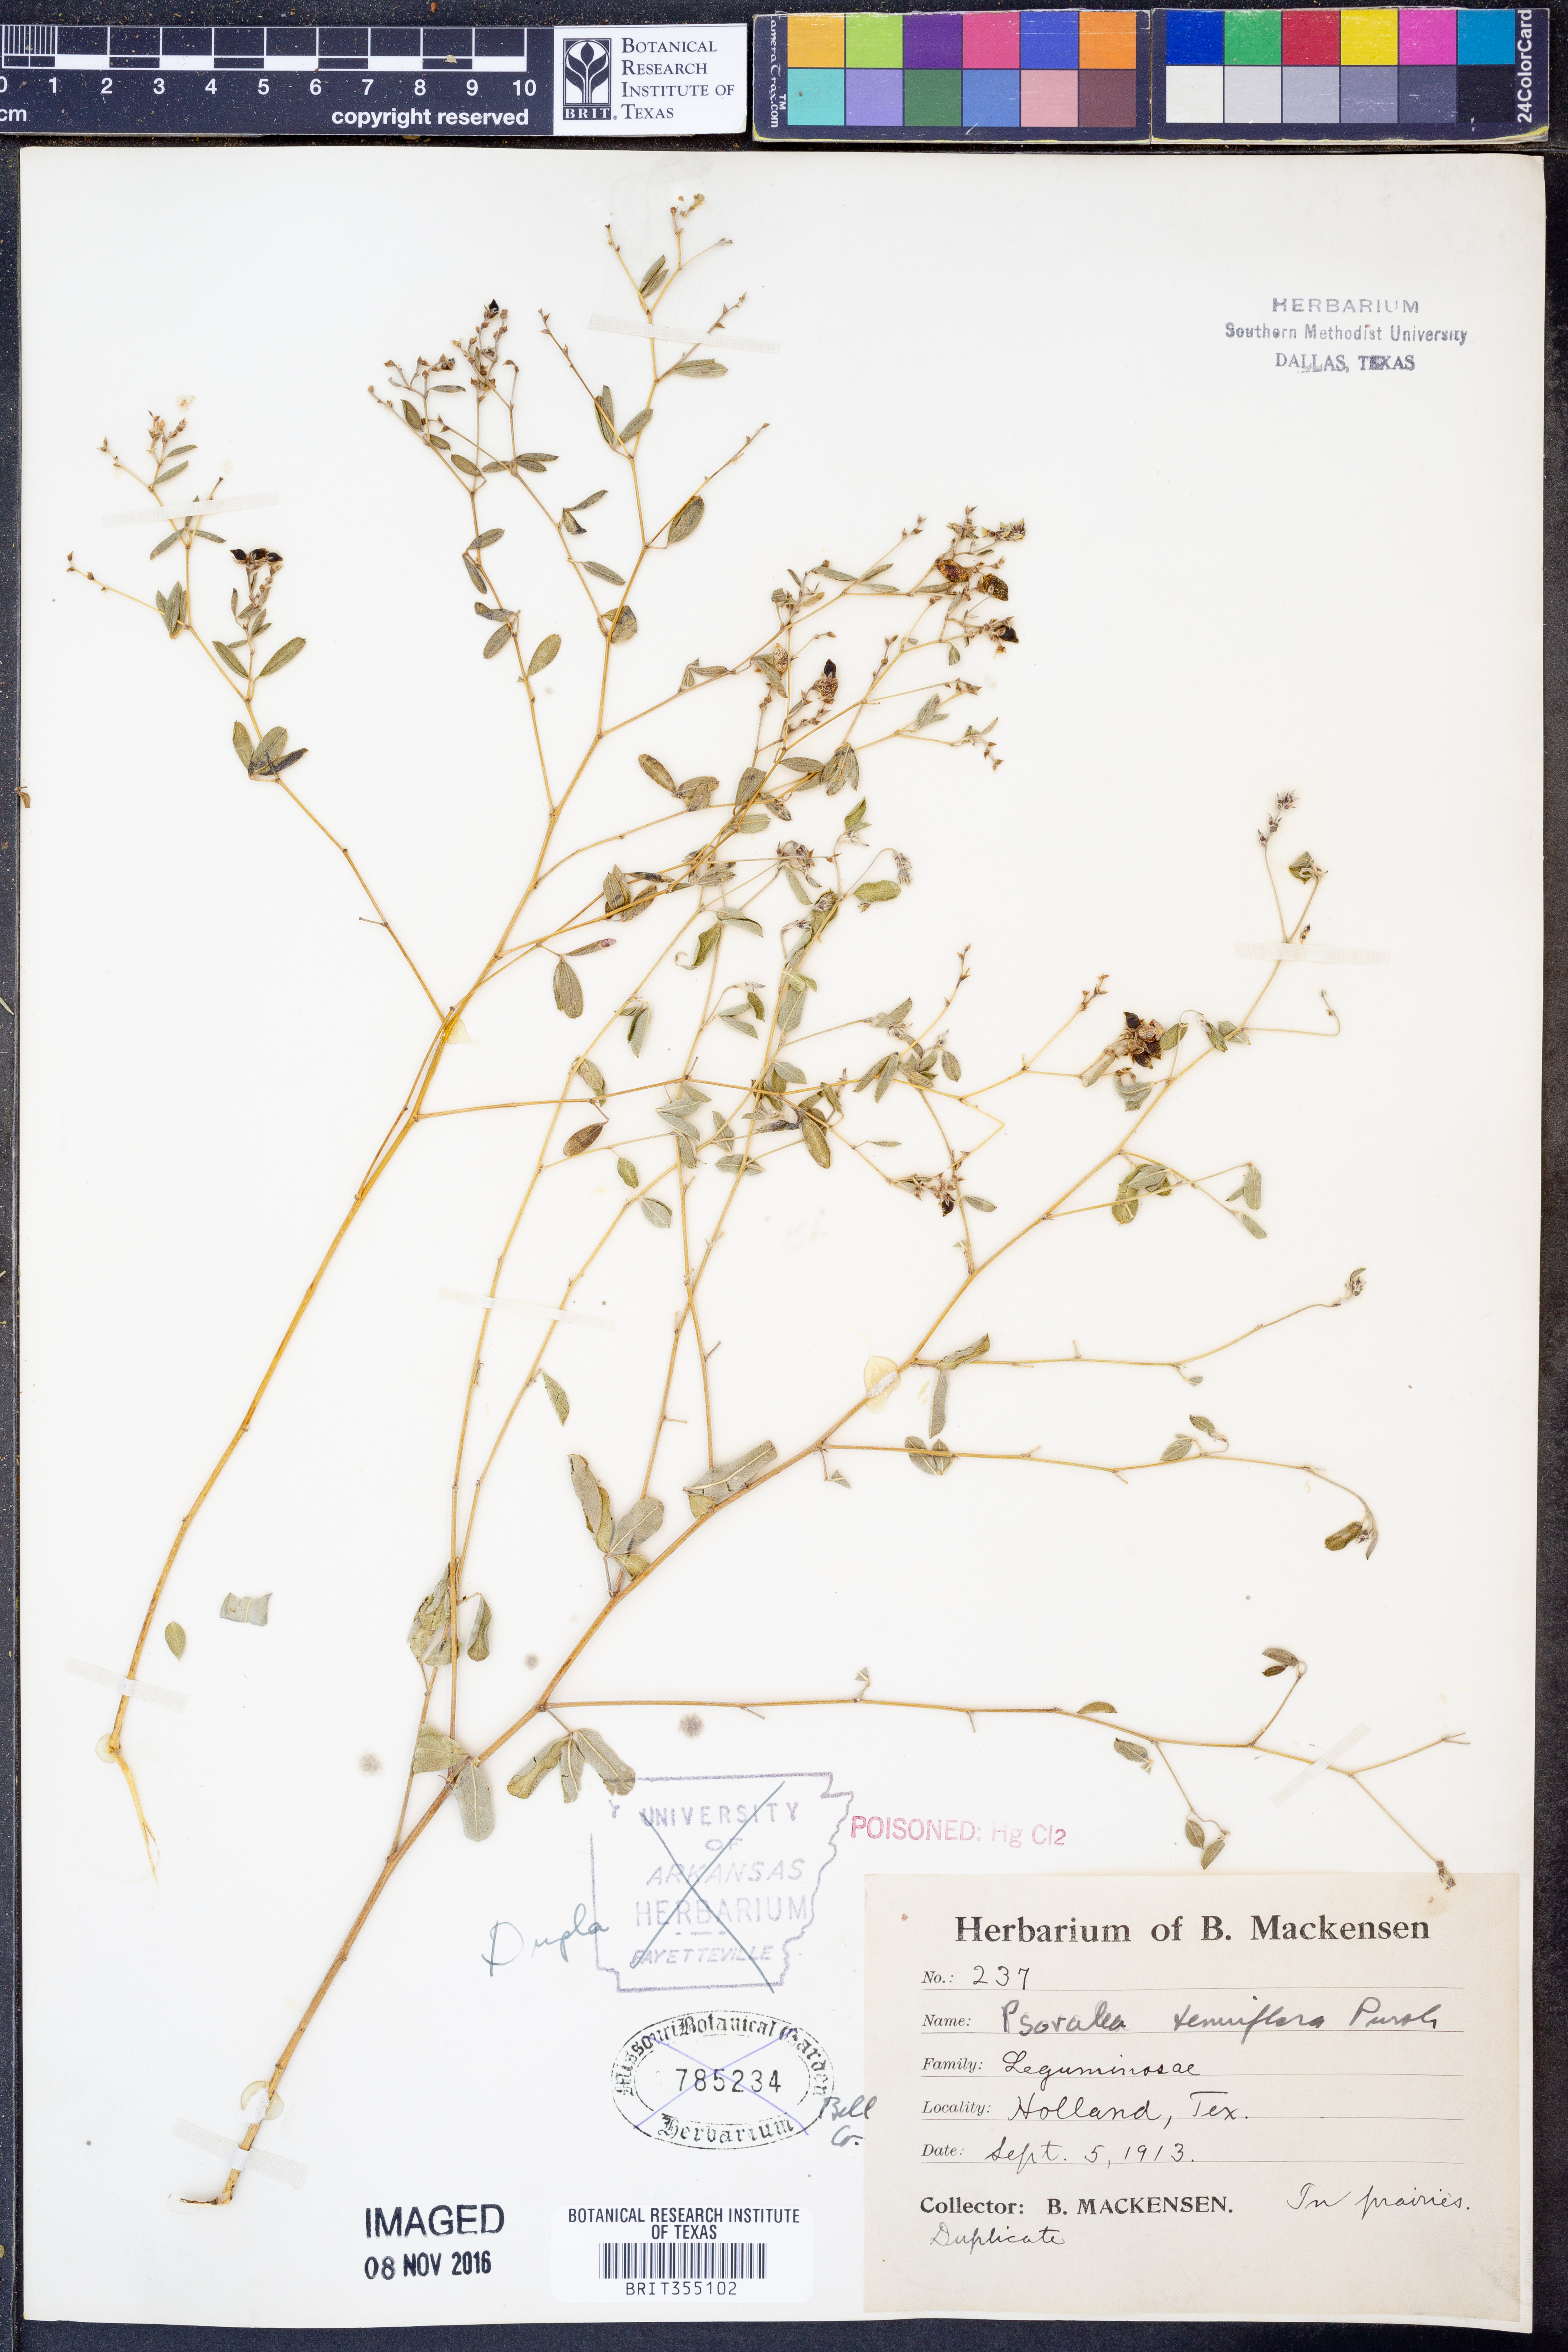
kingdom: Plantae
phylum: Tracheophyta
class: Magnoliopsida
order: Fabales
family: Fabaceae
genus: Pediomelum
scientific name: Pediomelum tenuiflorum
